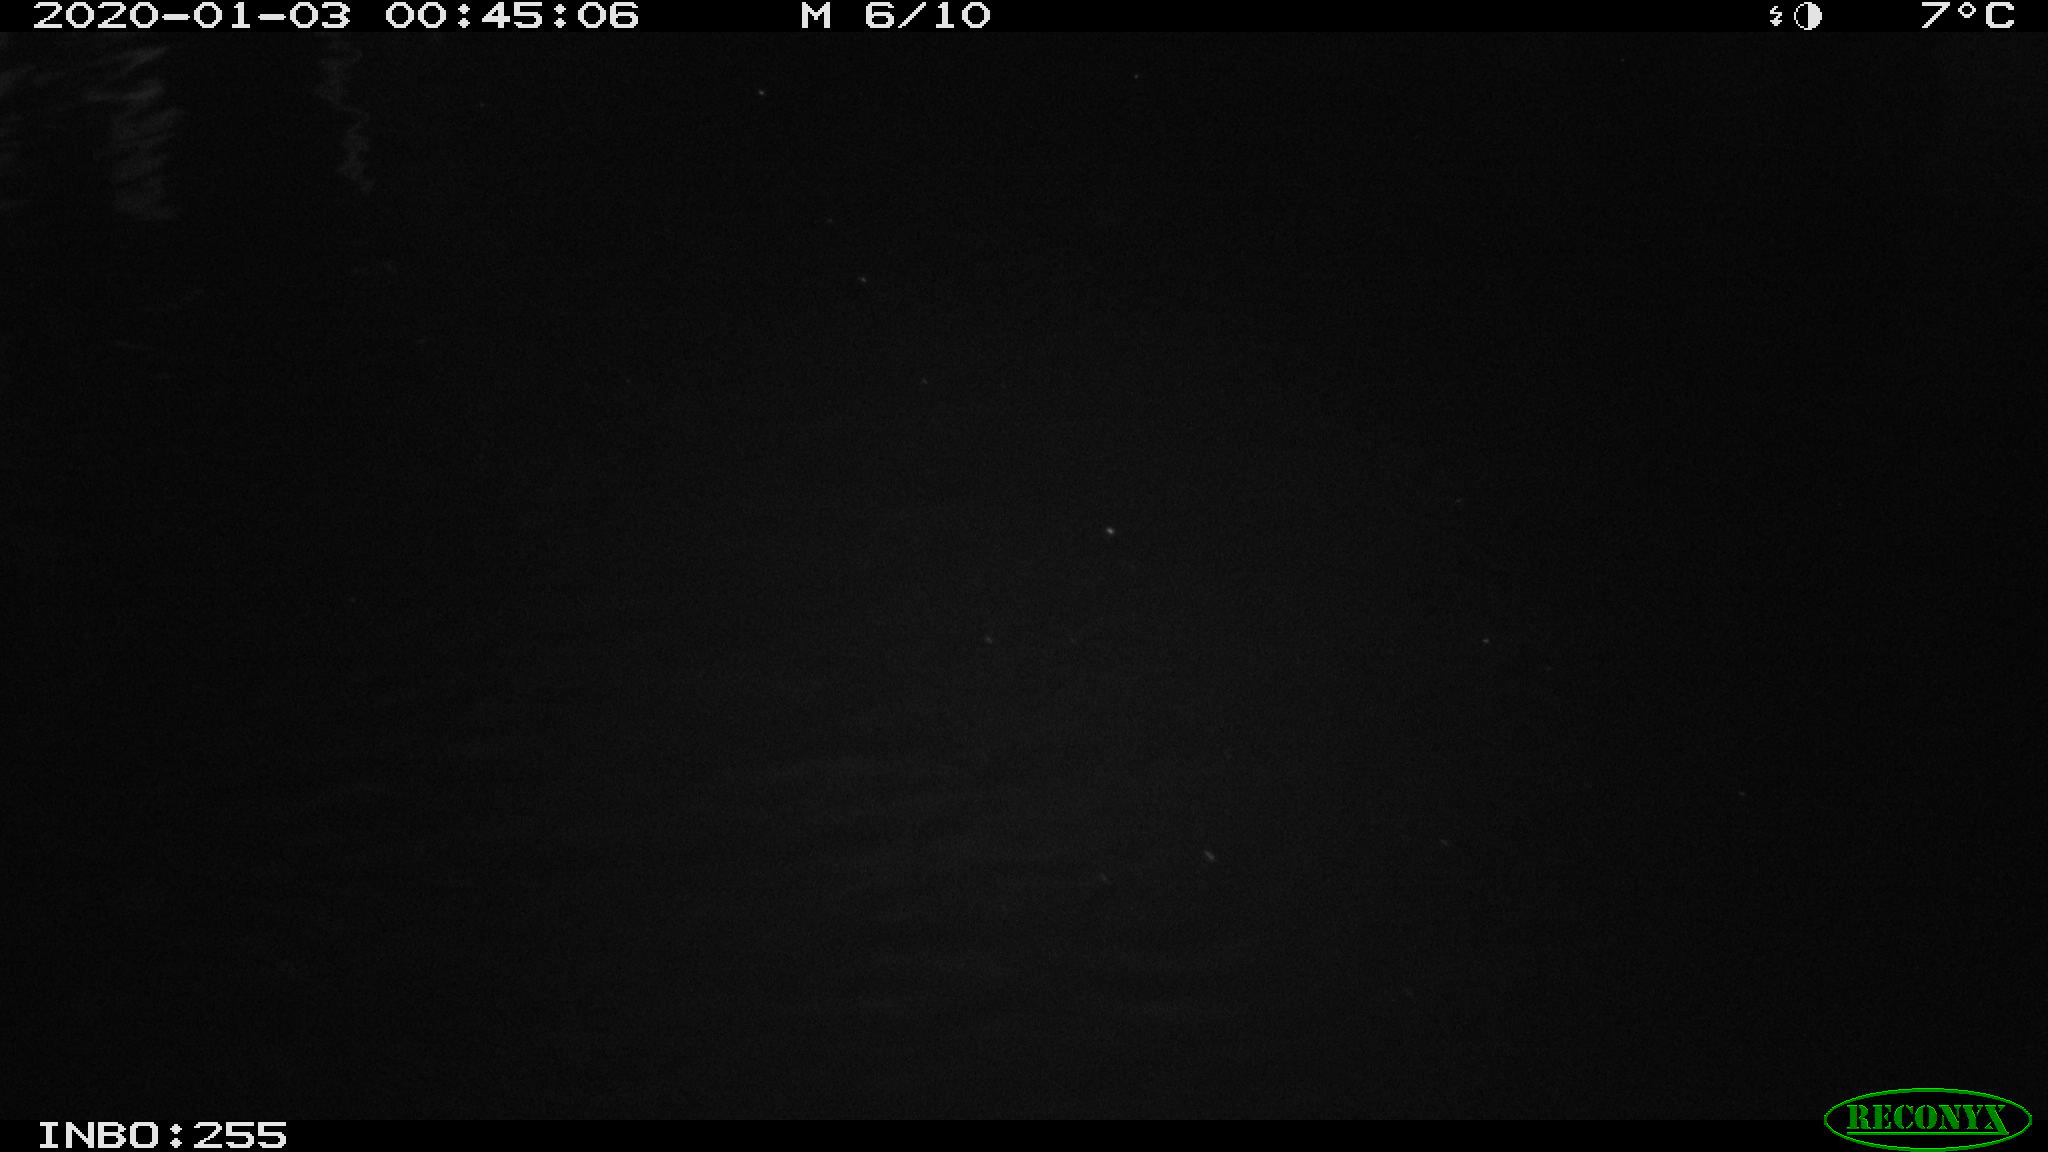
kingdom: Animalia
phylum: Chordata
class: Mammalia
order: Rodentia
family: Cricetidae
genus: Ondatra
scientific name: Ondatra zibethicus
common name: Muskrat
